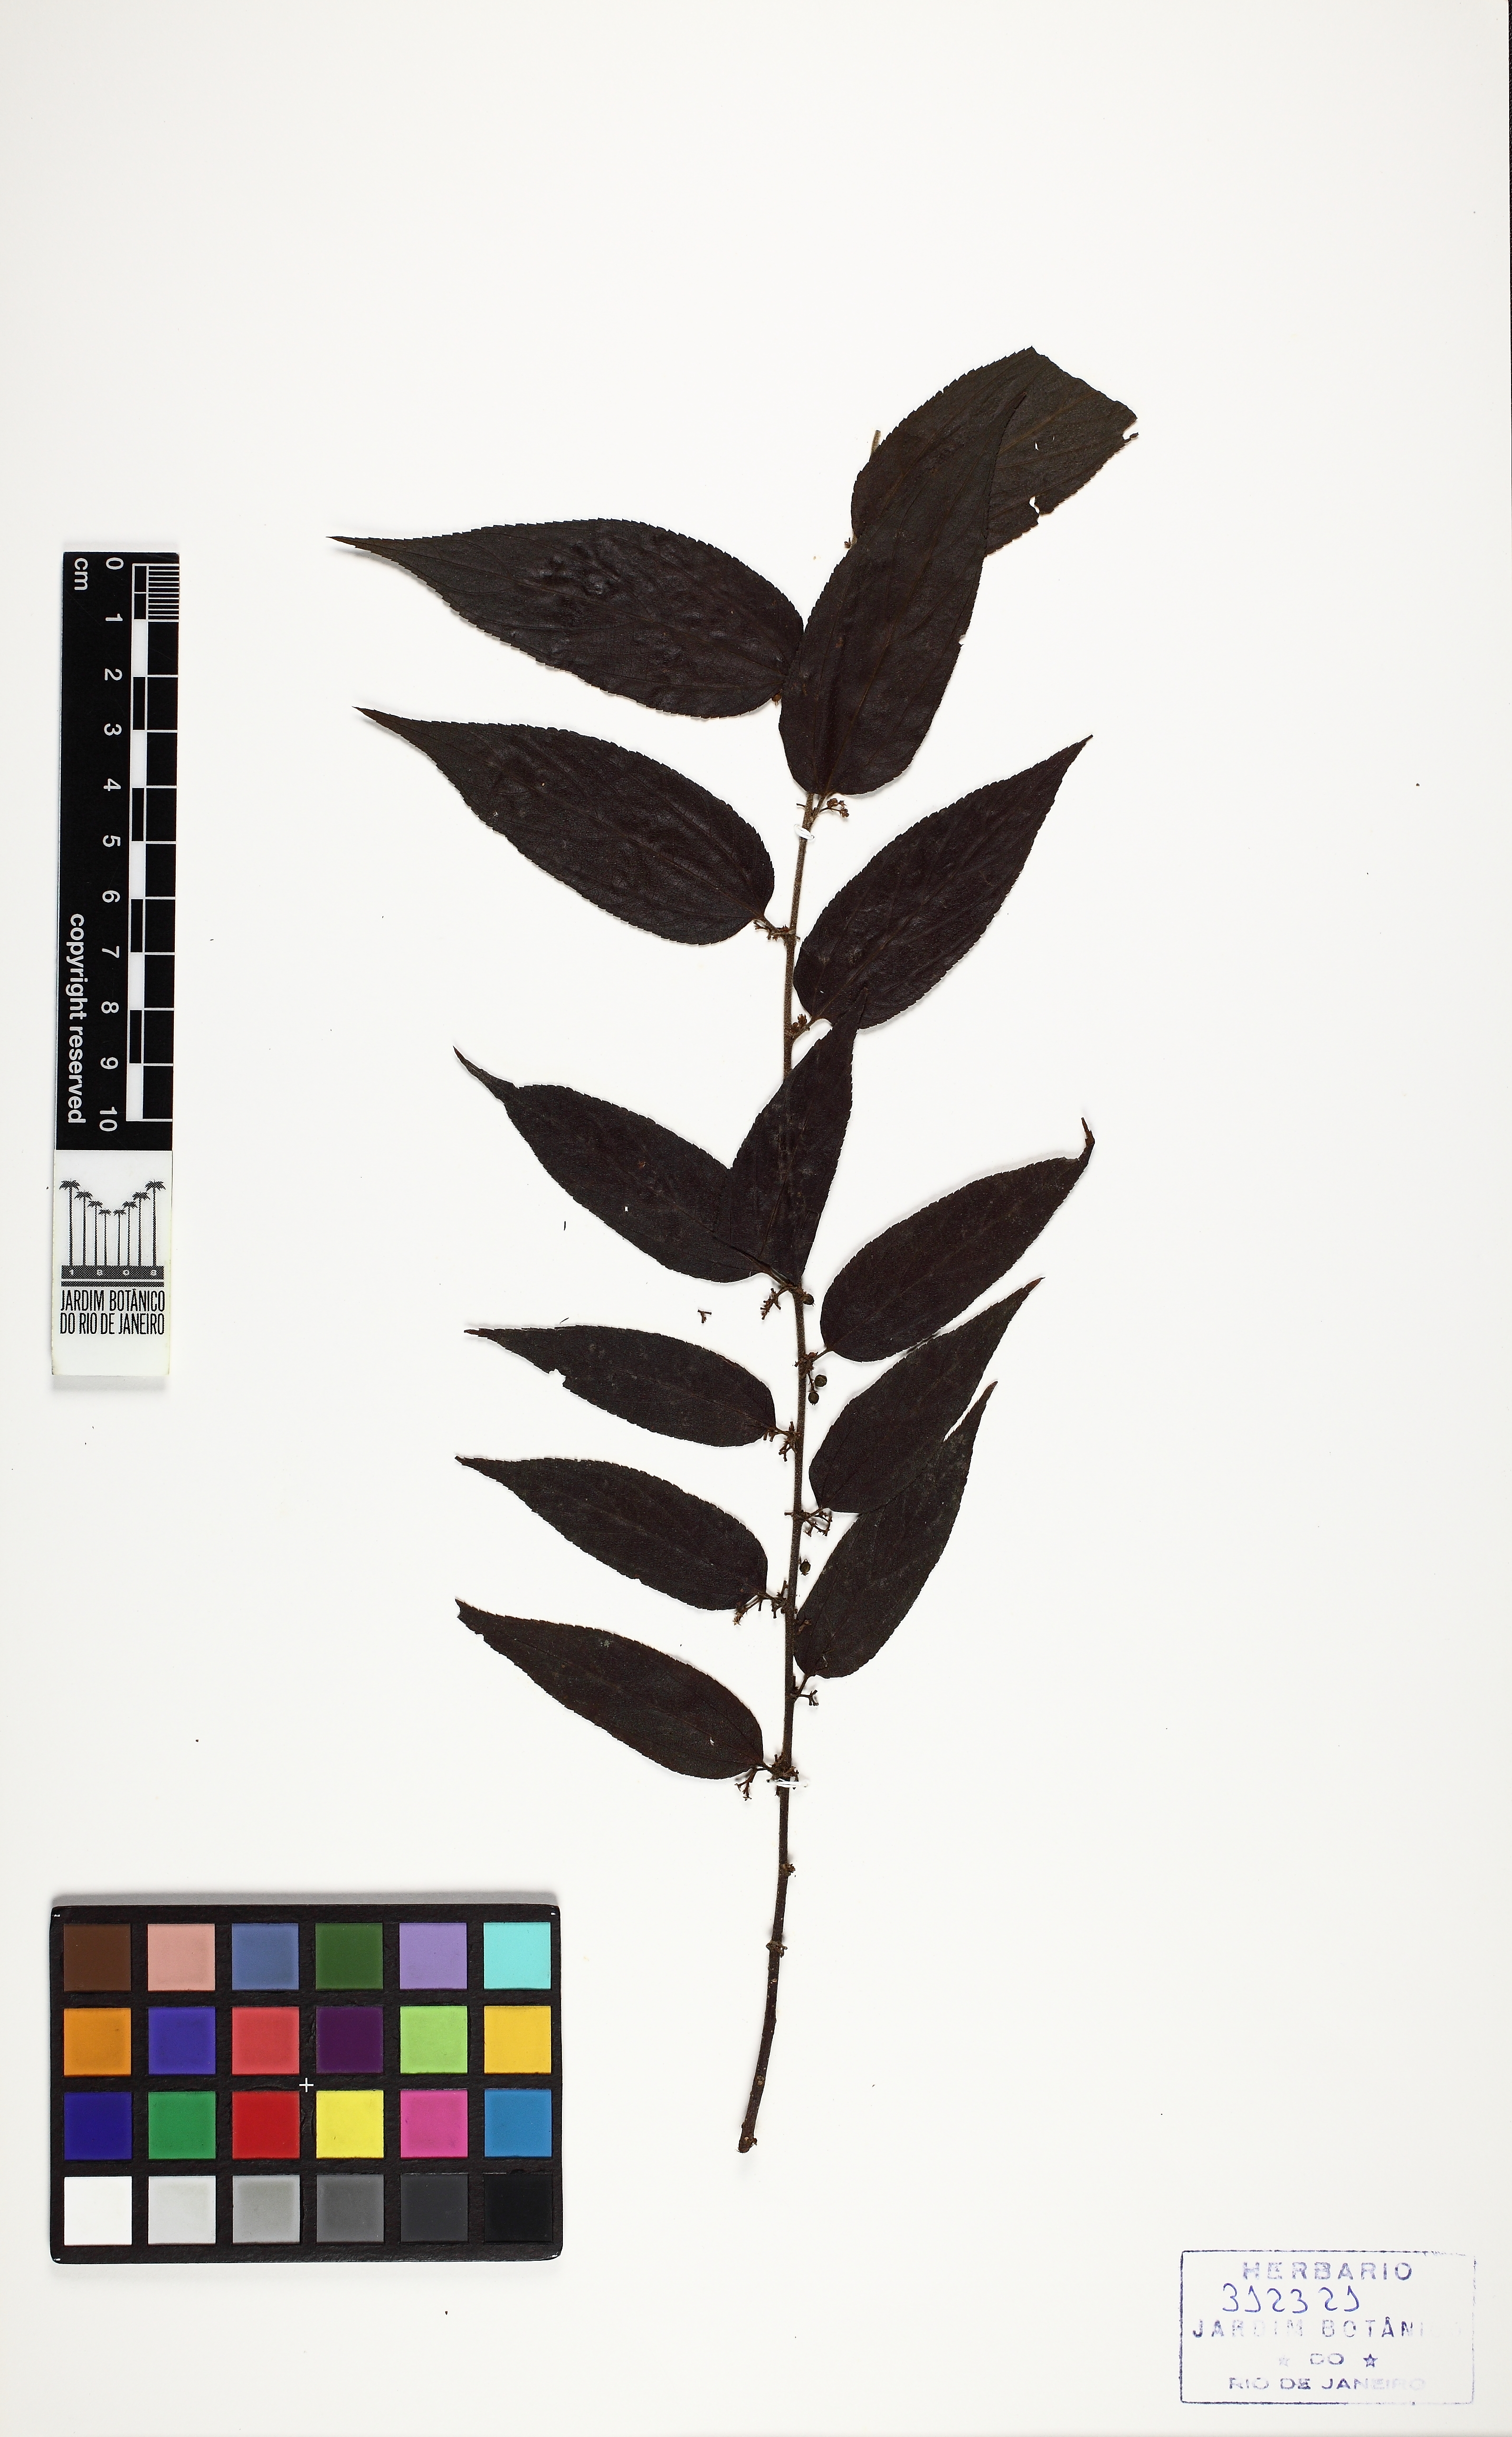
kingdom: Plantae
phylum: Tracheophyta
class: Magnoliopsida
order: Rosales
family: Cannabaceae
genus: Trema
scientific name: Trema micranthum
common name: Jamaican nettletree
